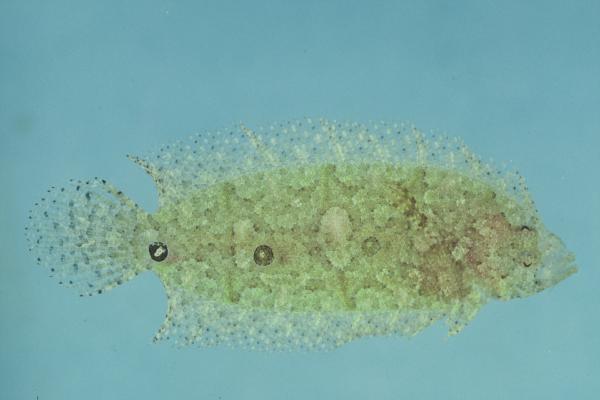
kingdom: Animalia
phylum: Chordata
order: Pleuronectiformes
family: Samaridae
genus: Samariscus
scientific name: Samariscus triocellatus
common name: Three-spot righteye flounder
